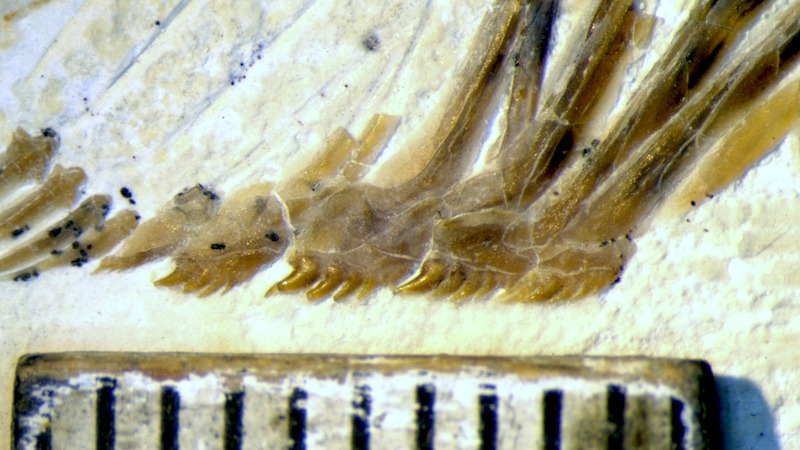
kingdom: Animalia
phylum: Chordata
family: Pycnodontidae
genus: Turbomesodon
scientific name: Turbomesodon relegans
